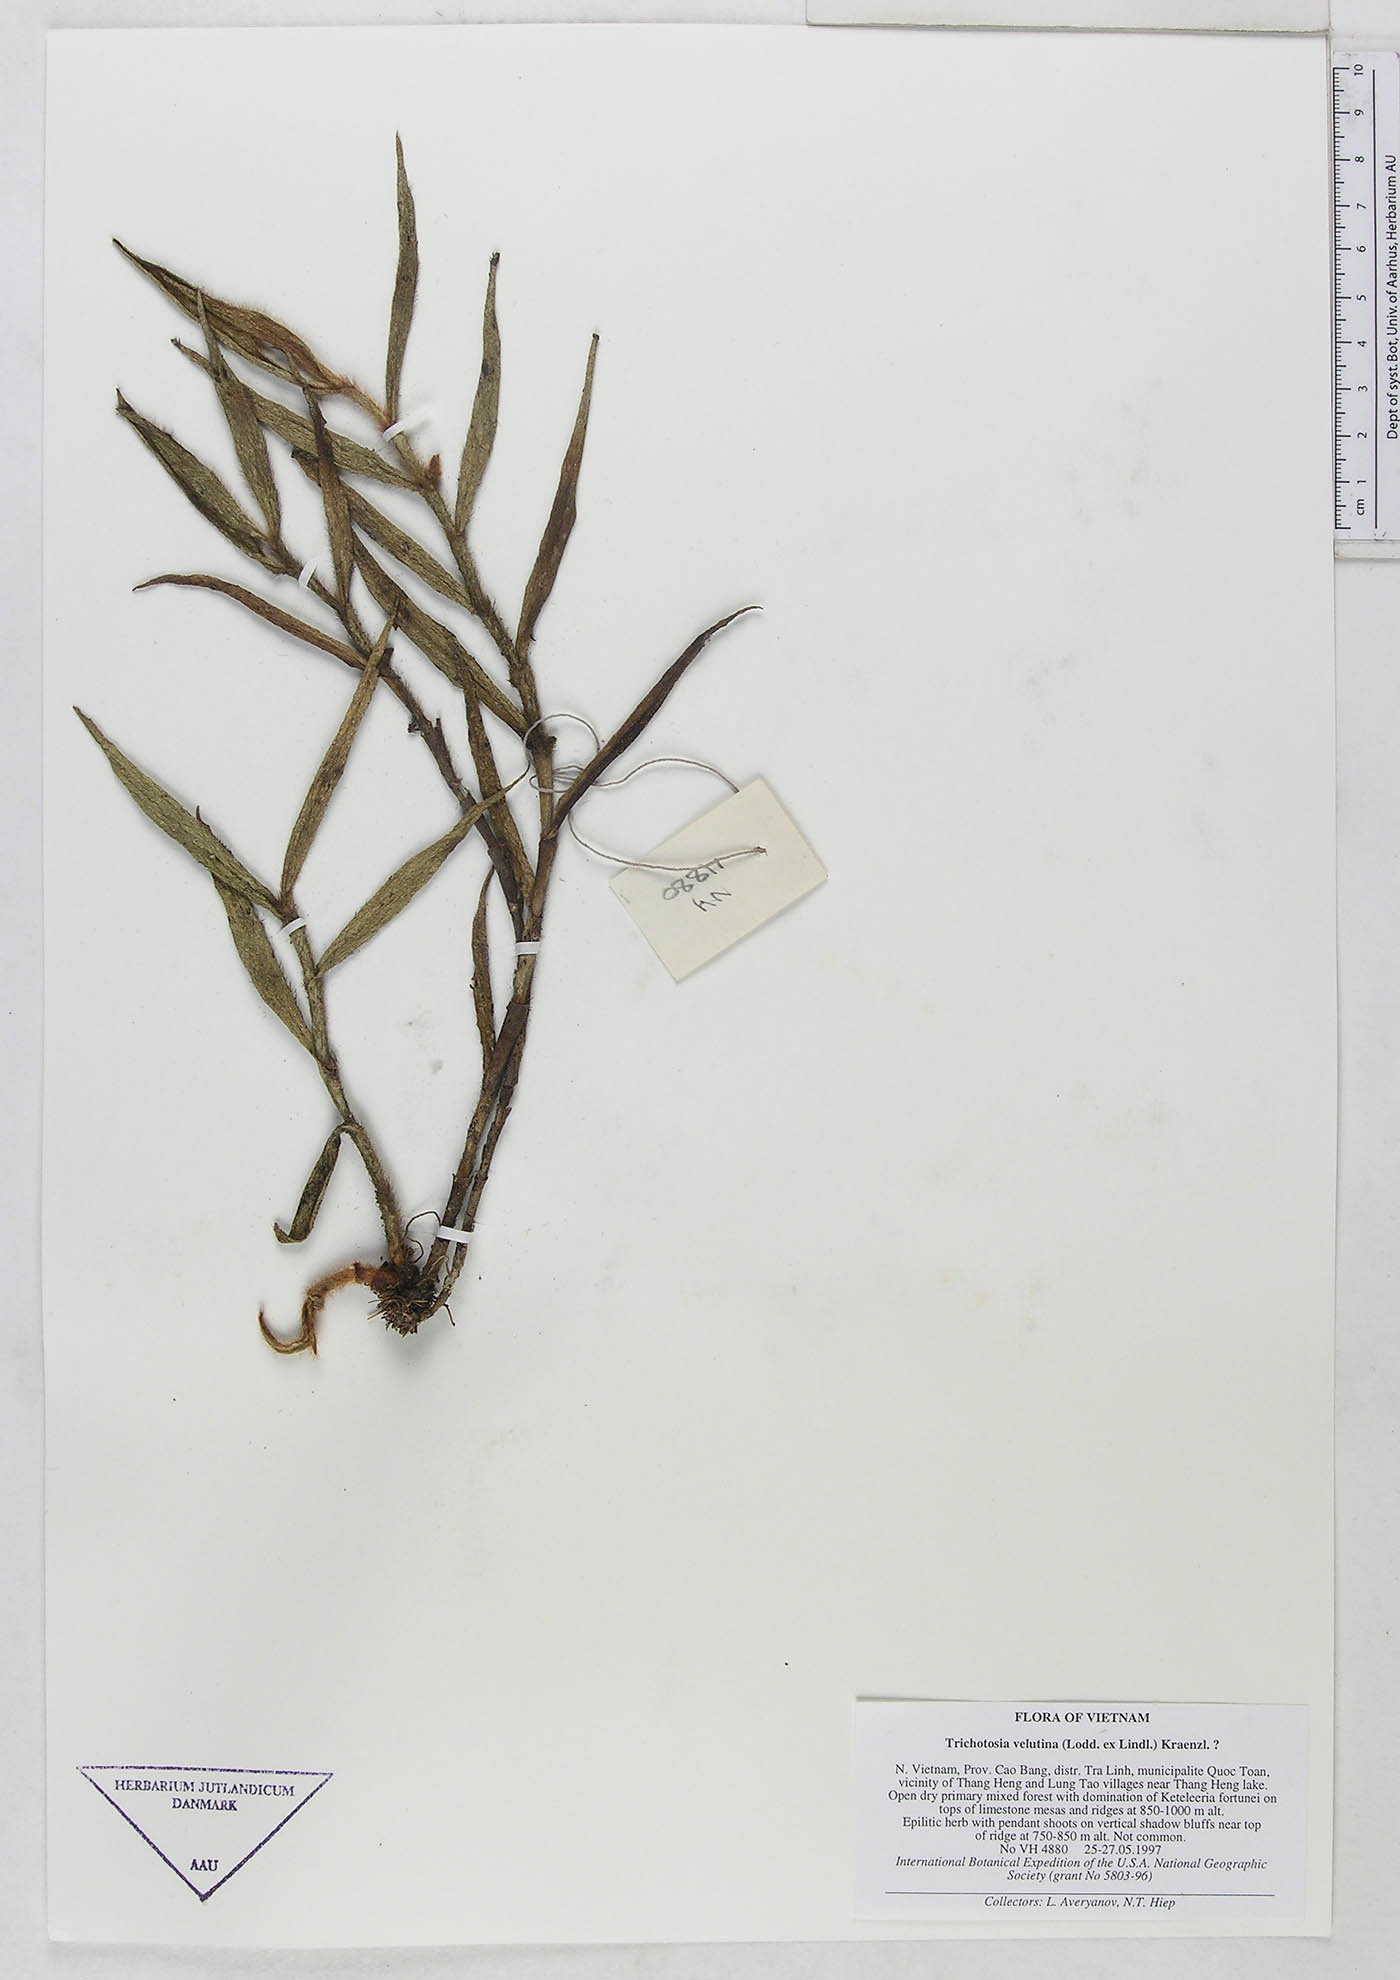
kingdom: Plantae
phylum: Tracheophyta
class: Liliopsida
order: Asparagales
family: Orchidaceae
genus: Trichotosia
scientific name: Trichotosia velutina
